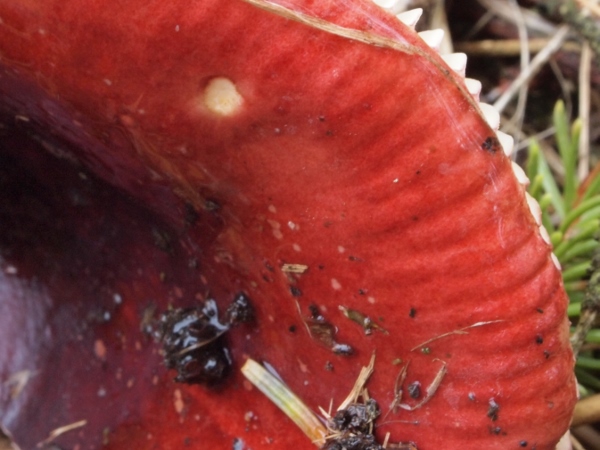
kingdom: Fungi
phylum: Basidiomycota
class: Agaricomycetes
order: Russulales
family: Russulaceae
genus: Russula
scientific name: Russula xerampelina
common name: hummer-skørhat
